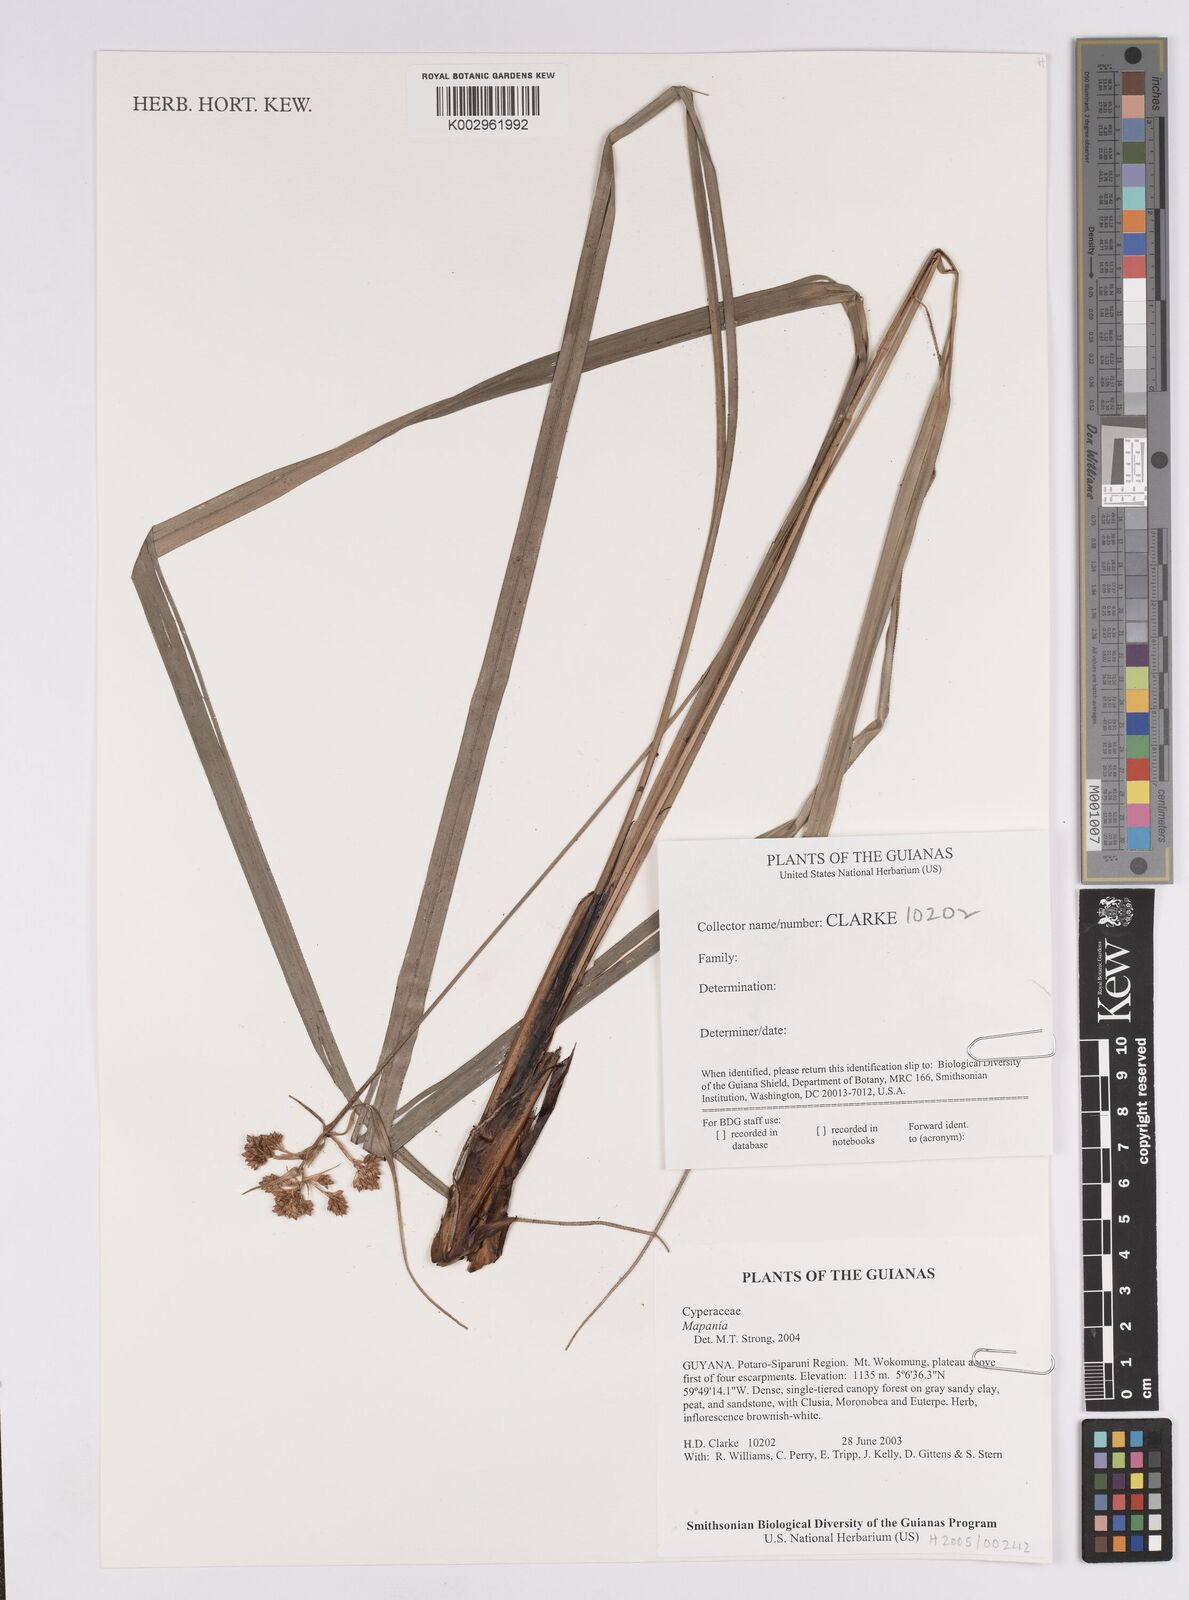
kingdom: Plantae
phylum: Tracheophyta
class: Liliopsida
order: Poales
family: Cyperaceae
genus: Mapania
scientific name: Mapania
